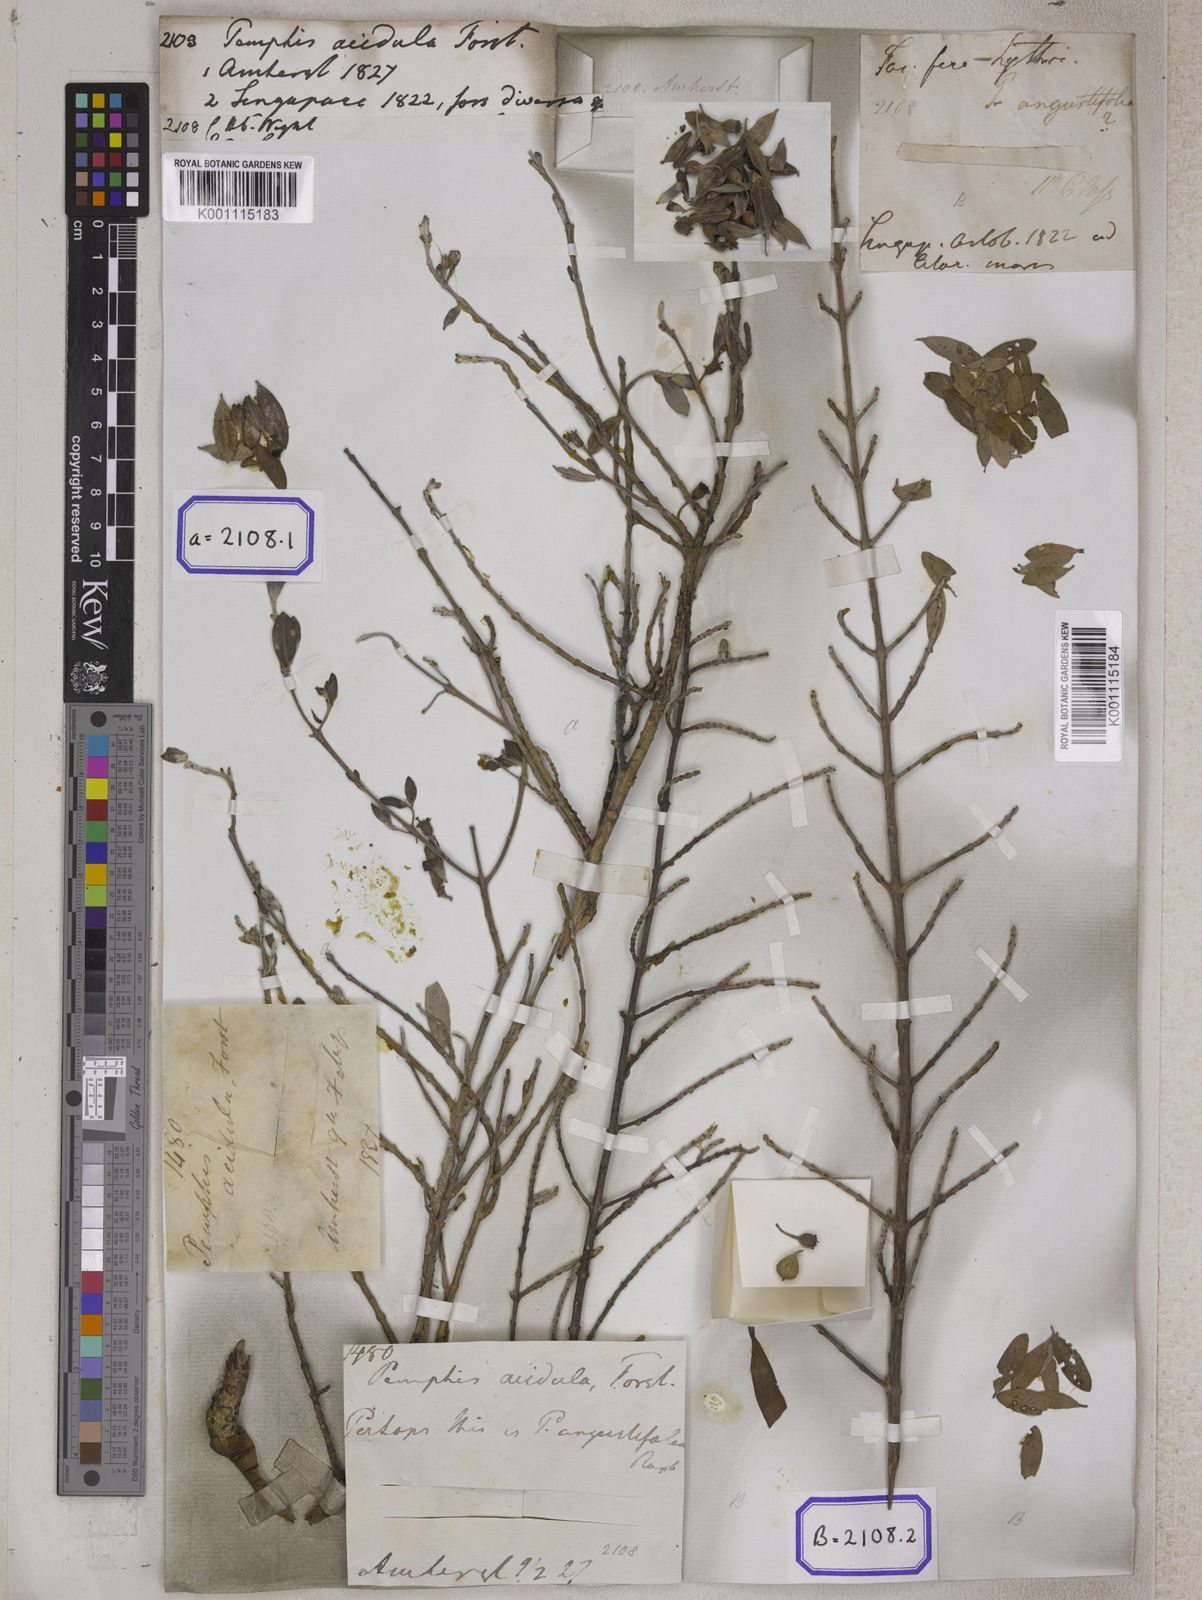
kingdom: Plantae
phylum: Tracheophyta
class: Magnoliopsida
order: Myrtales
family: Lythraceae
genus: Pemphis
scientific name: Pemphis acidula
